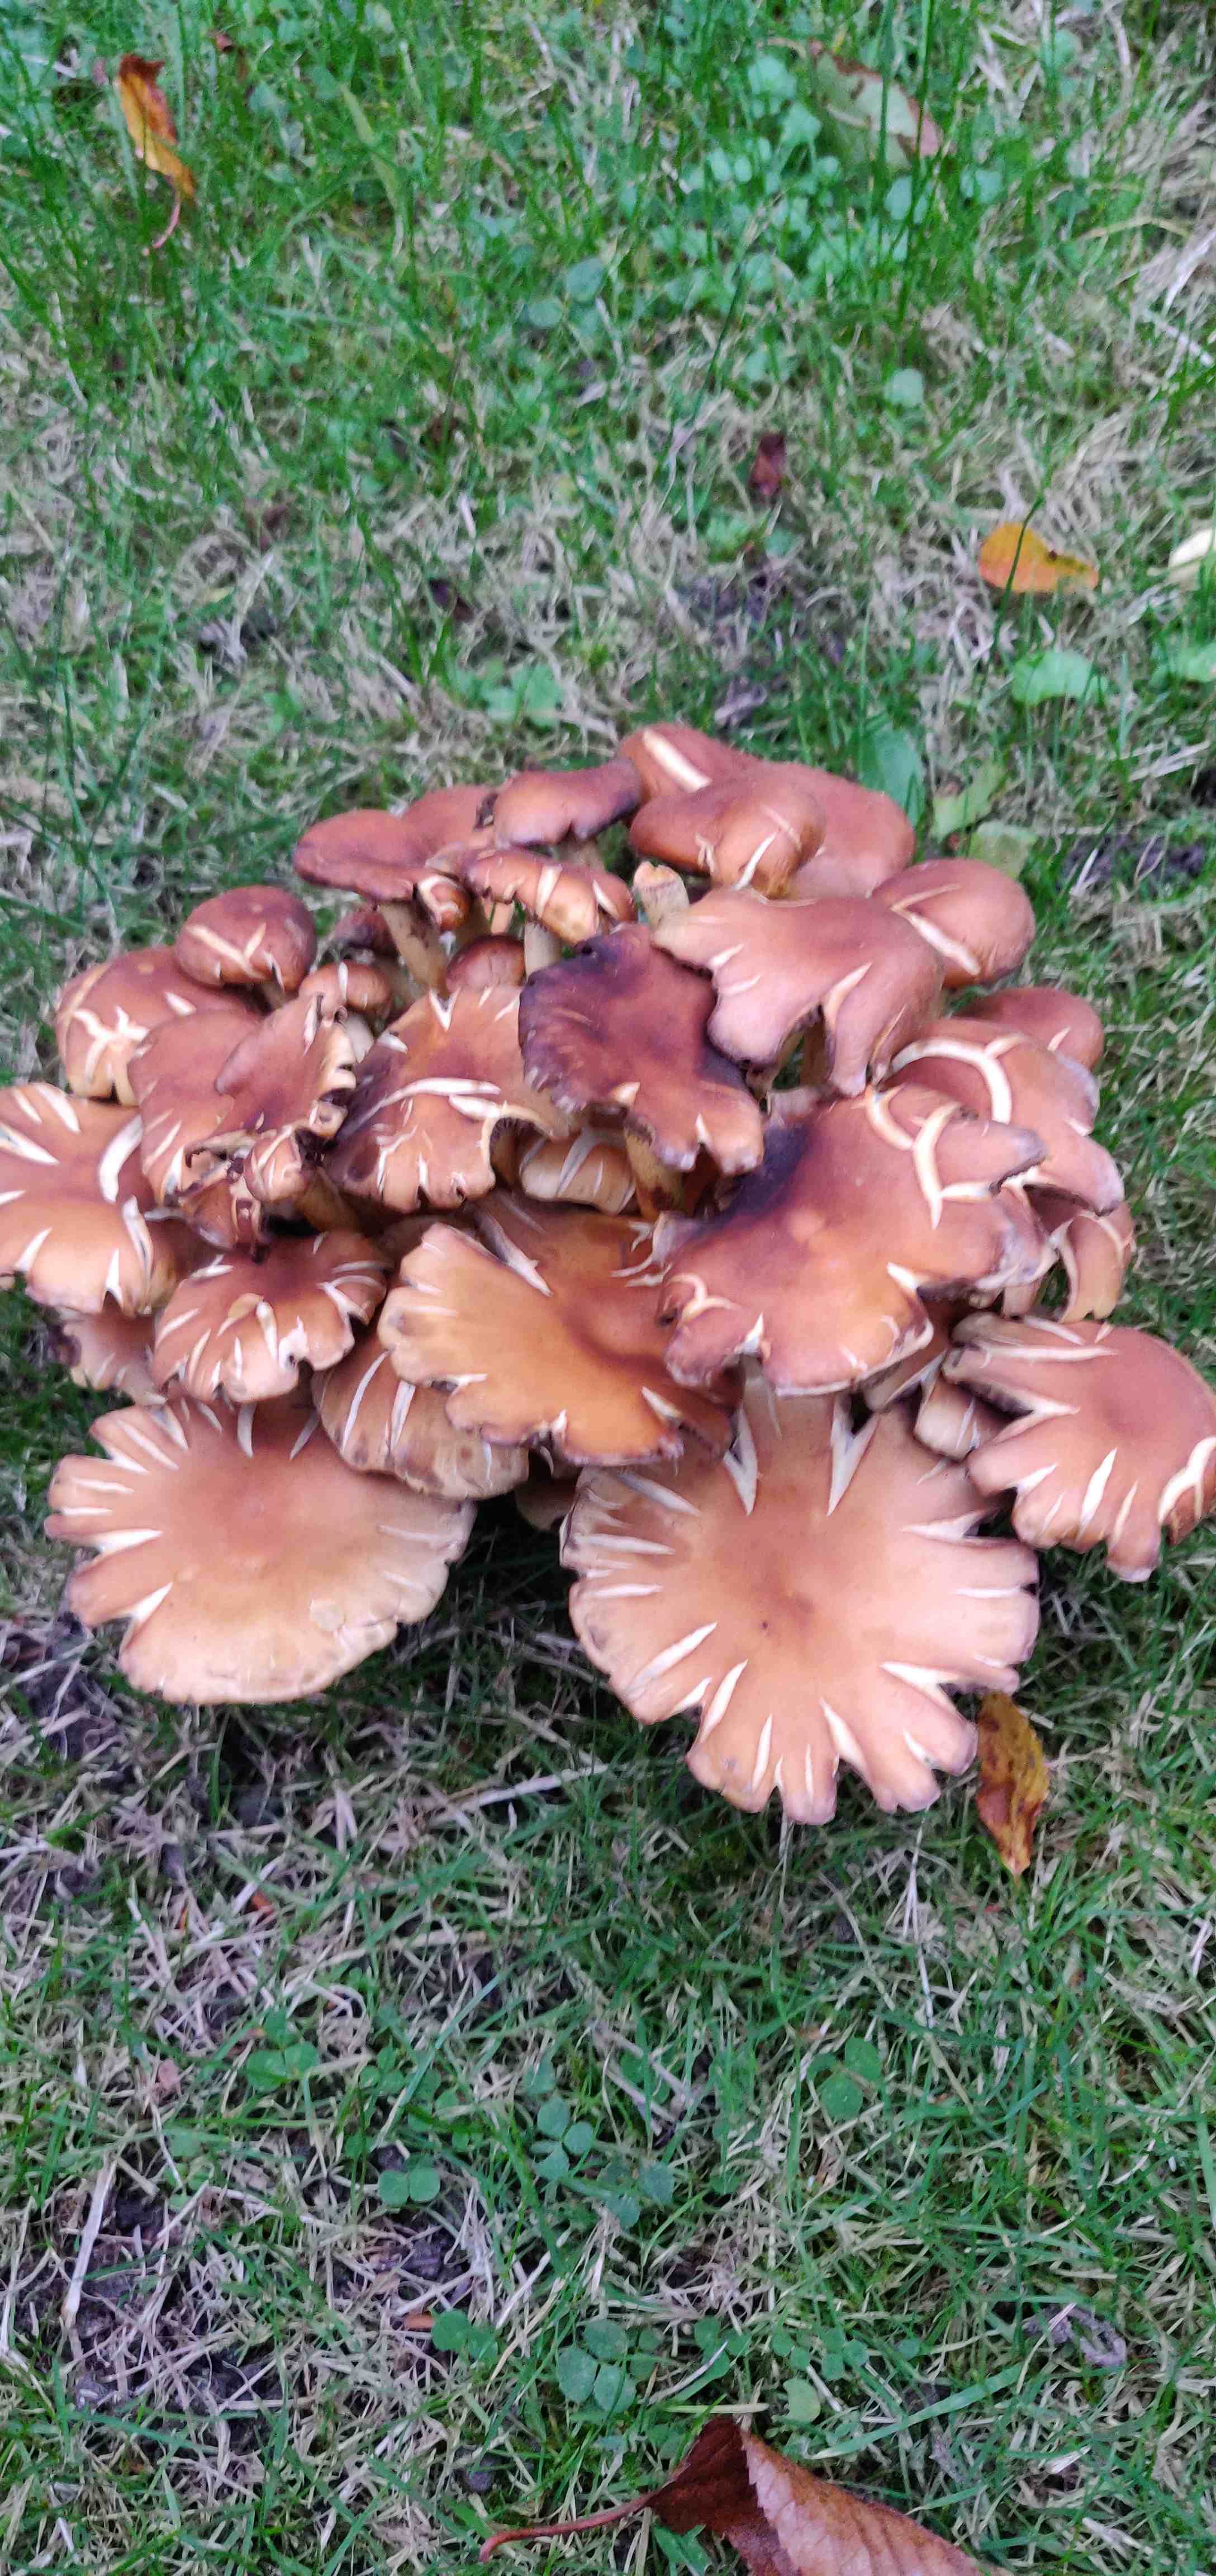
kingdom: Fungi
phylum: Basidiomycota
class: Agaricomycetes
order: Agaricales
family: Strophariaceae
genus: Hypholoma
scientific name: Hypholoma fasciculare
